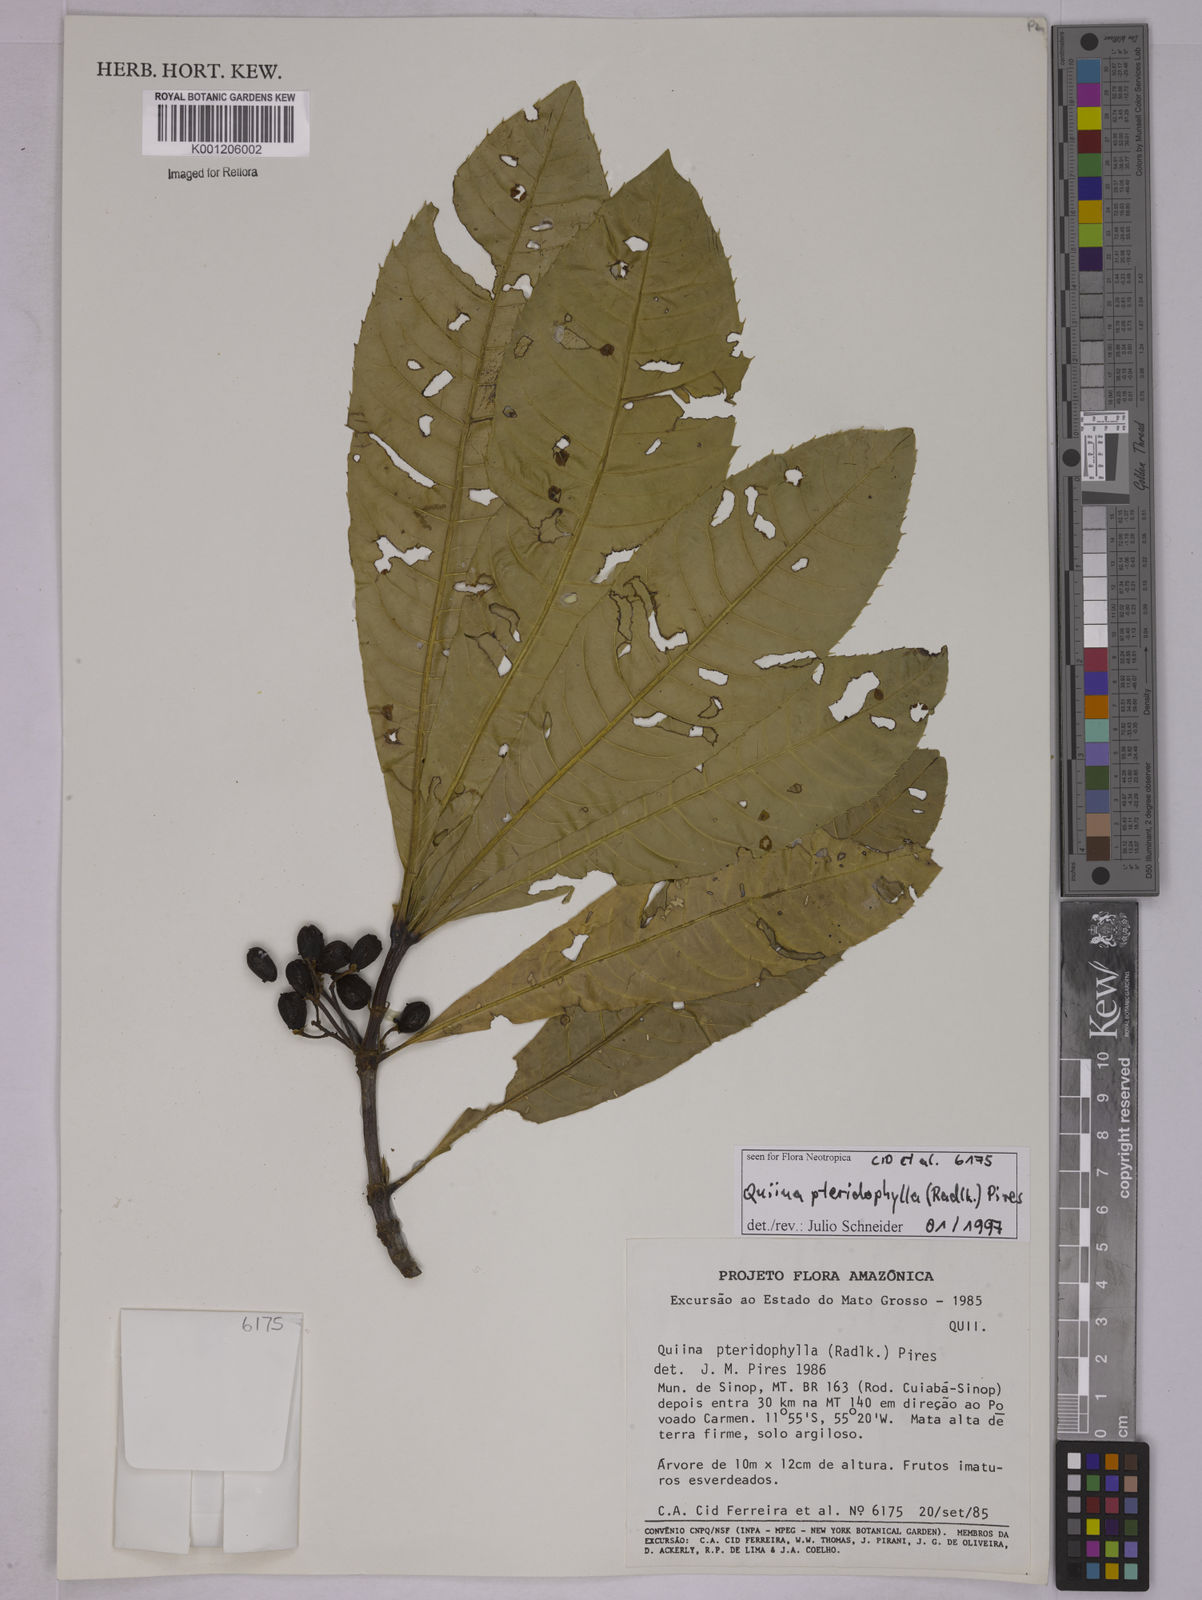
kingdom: Plantae
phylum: Tracheophyta
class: Magnoliopsida
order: Malpighiales
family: Quiinaceae
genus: Quiina
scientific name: Quiina pteridophylla
